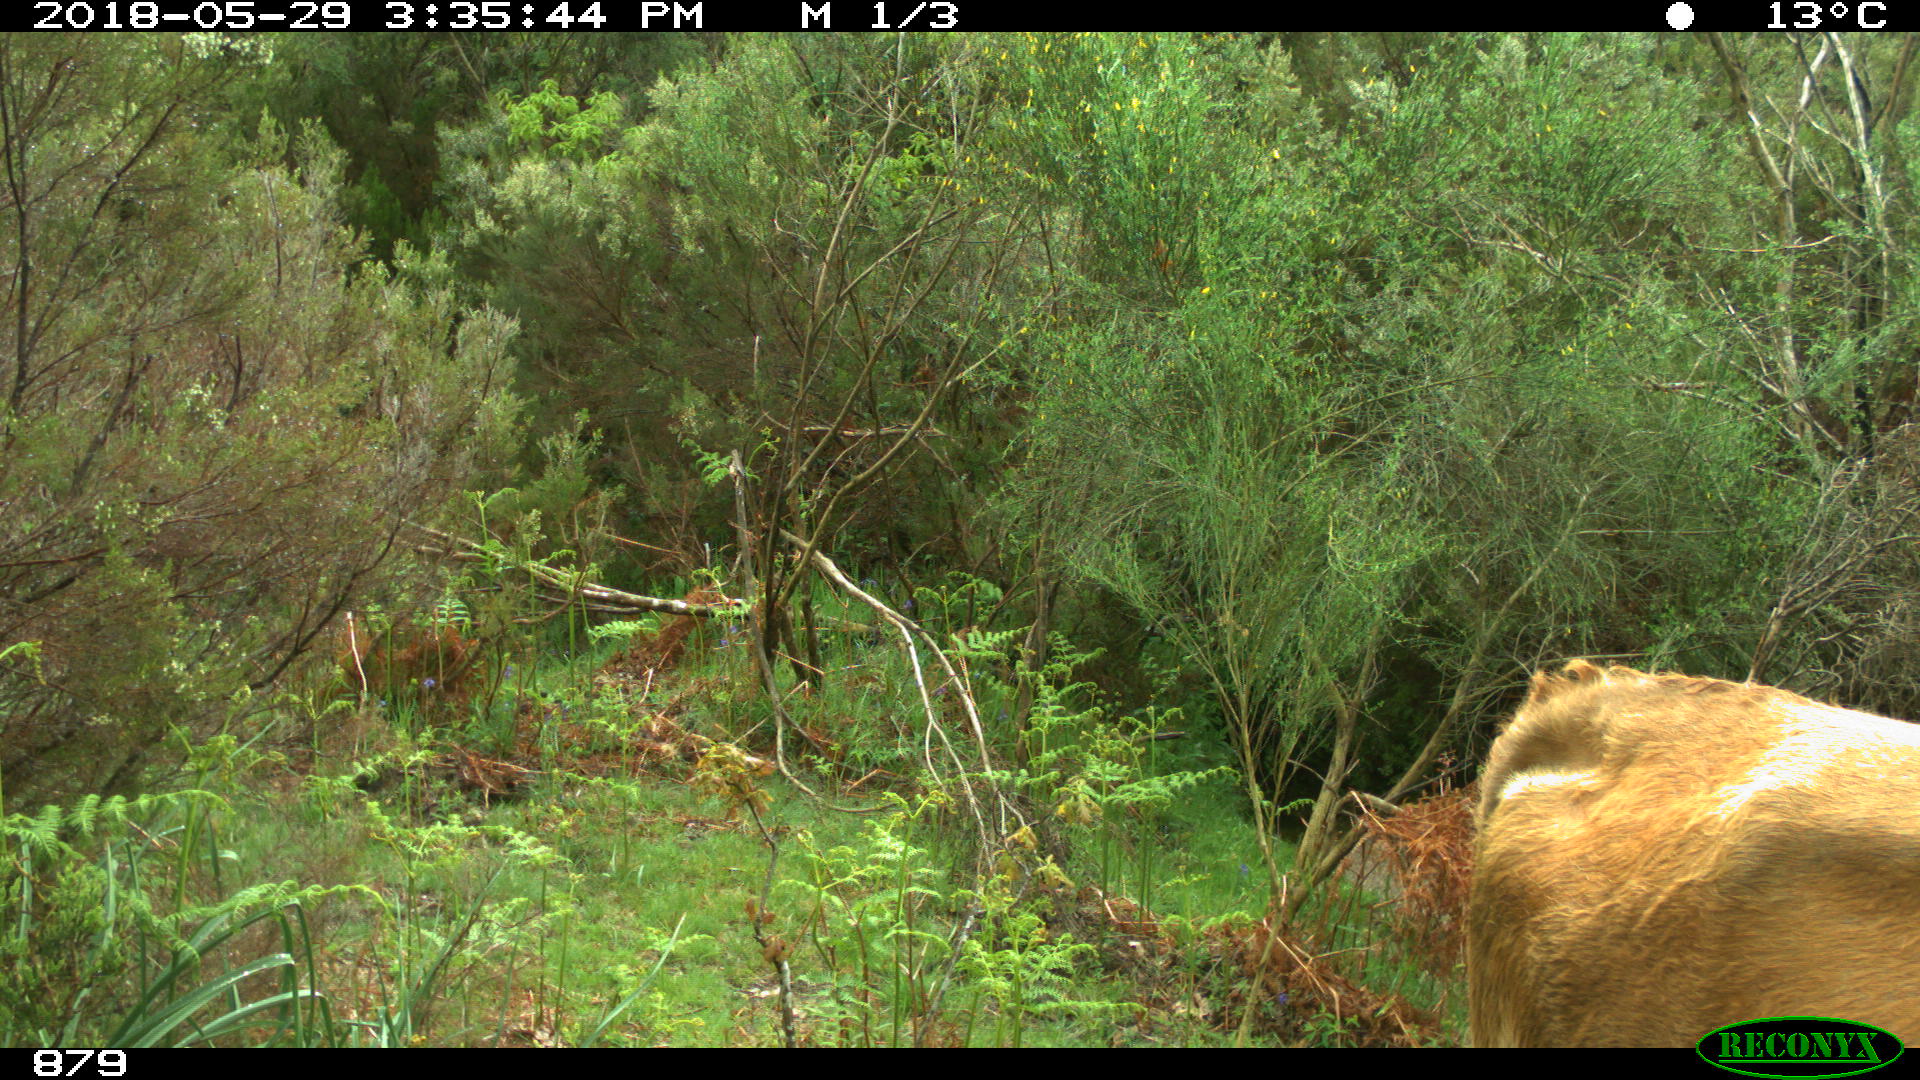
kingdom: Animalia
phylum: Chordata
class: Mammalia
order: Artiodactyla
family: Bovidae
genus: Bos
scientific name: Bos taurus
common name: Domesticated cattle
